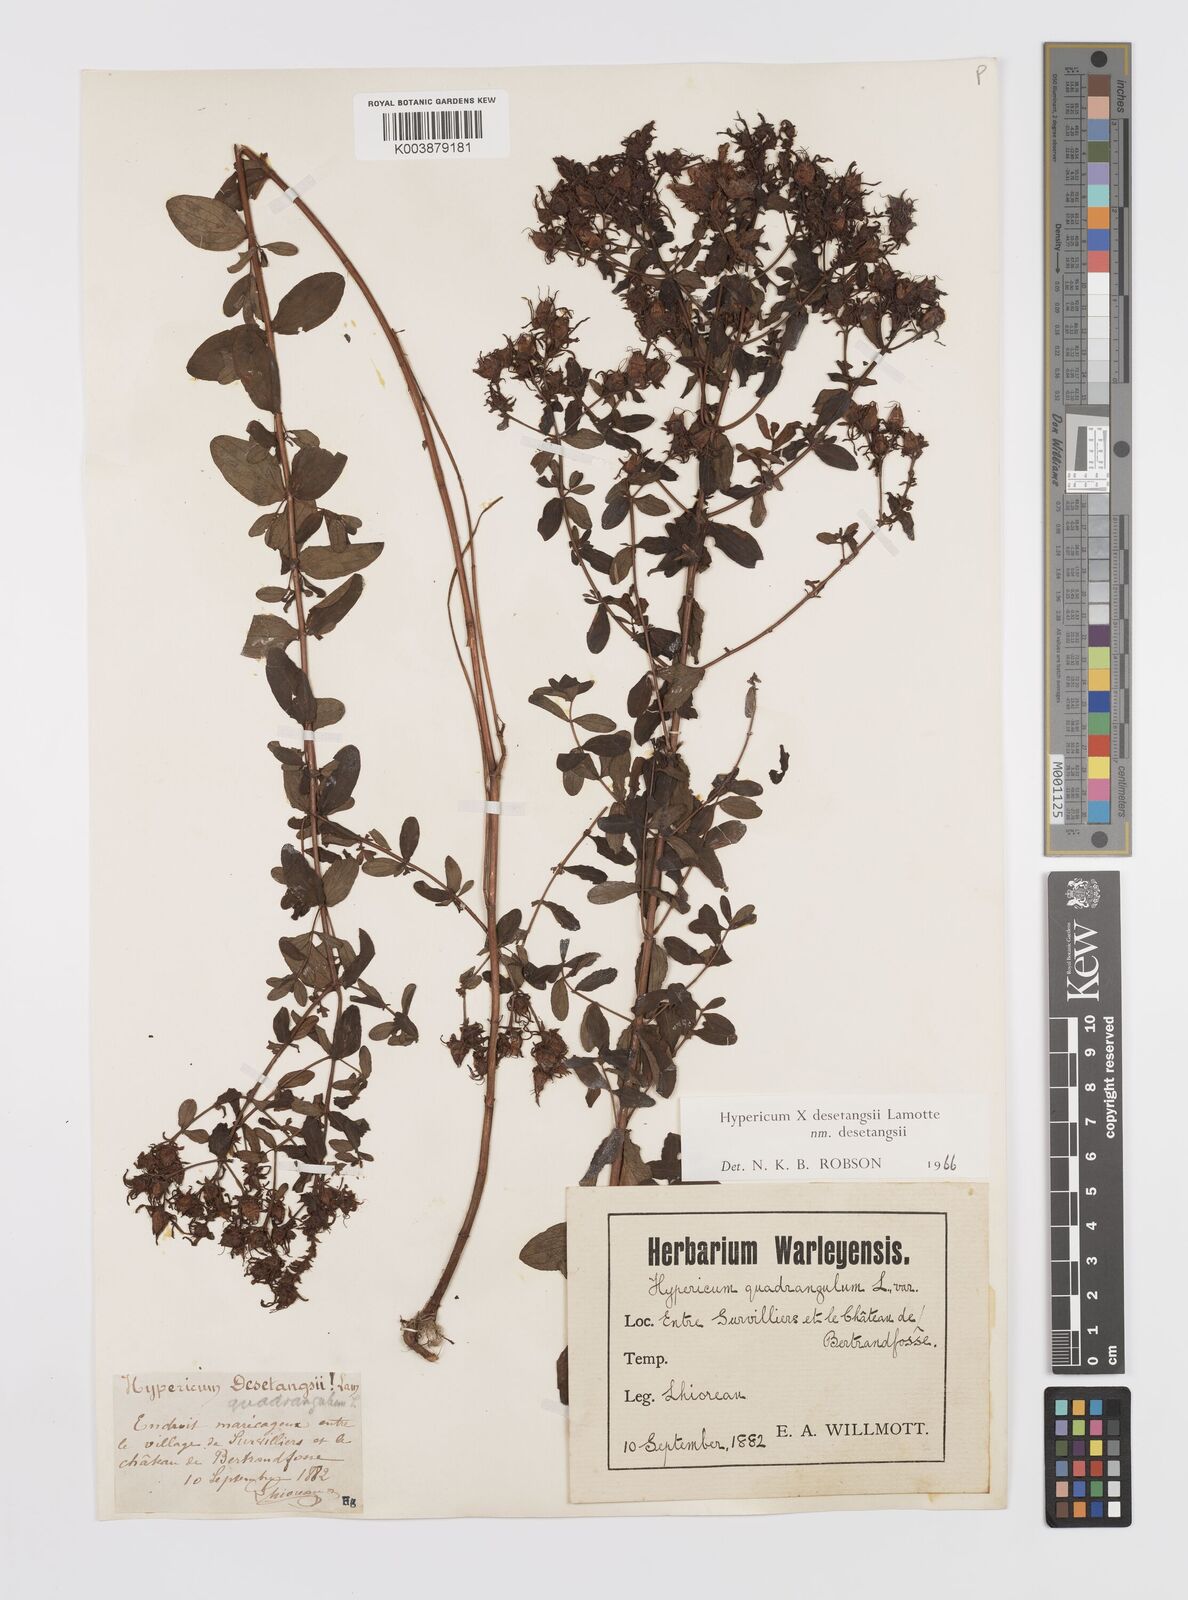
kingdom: Plantae
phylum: Tracheophyta
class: Magnoliopsida
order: Malpighiales
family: Hypericaceae
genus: Hypericum
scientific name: Hypericum desetangsii
